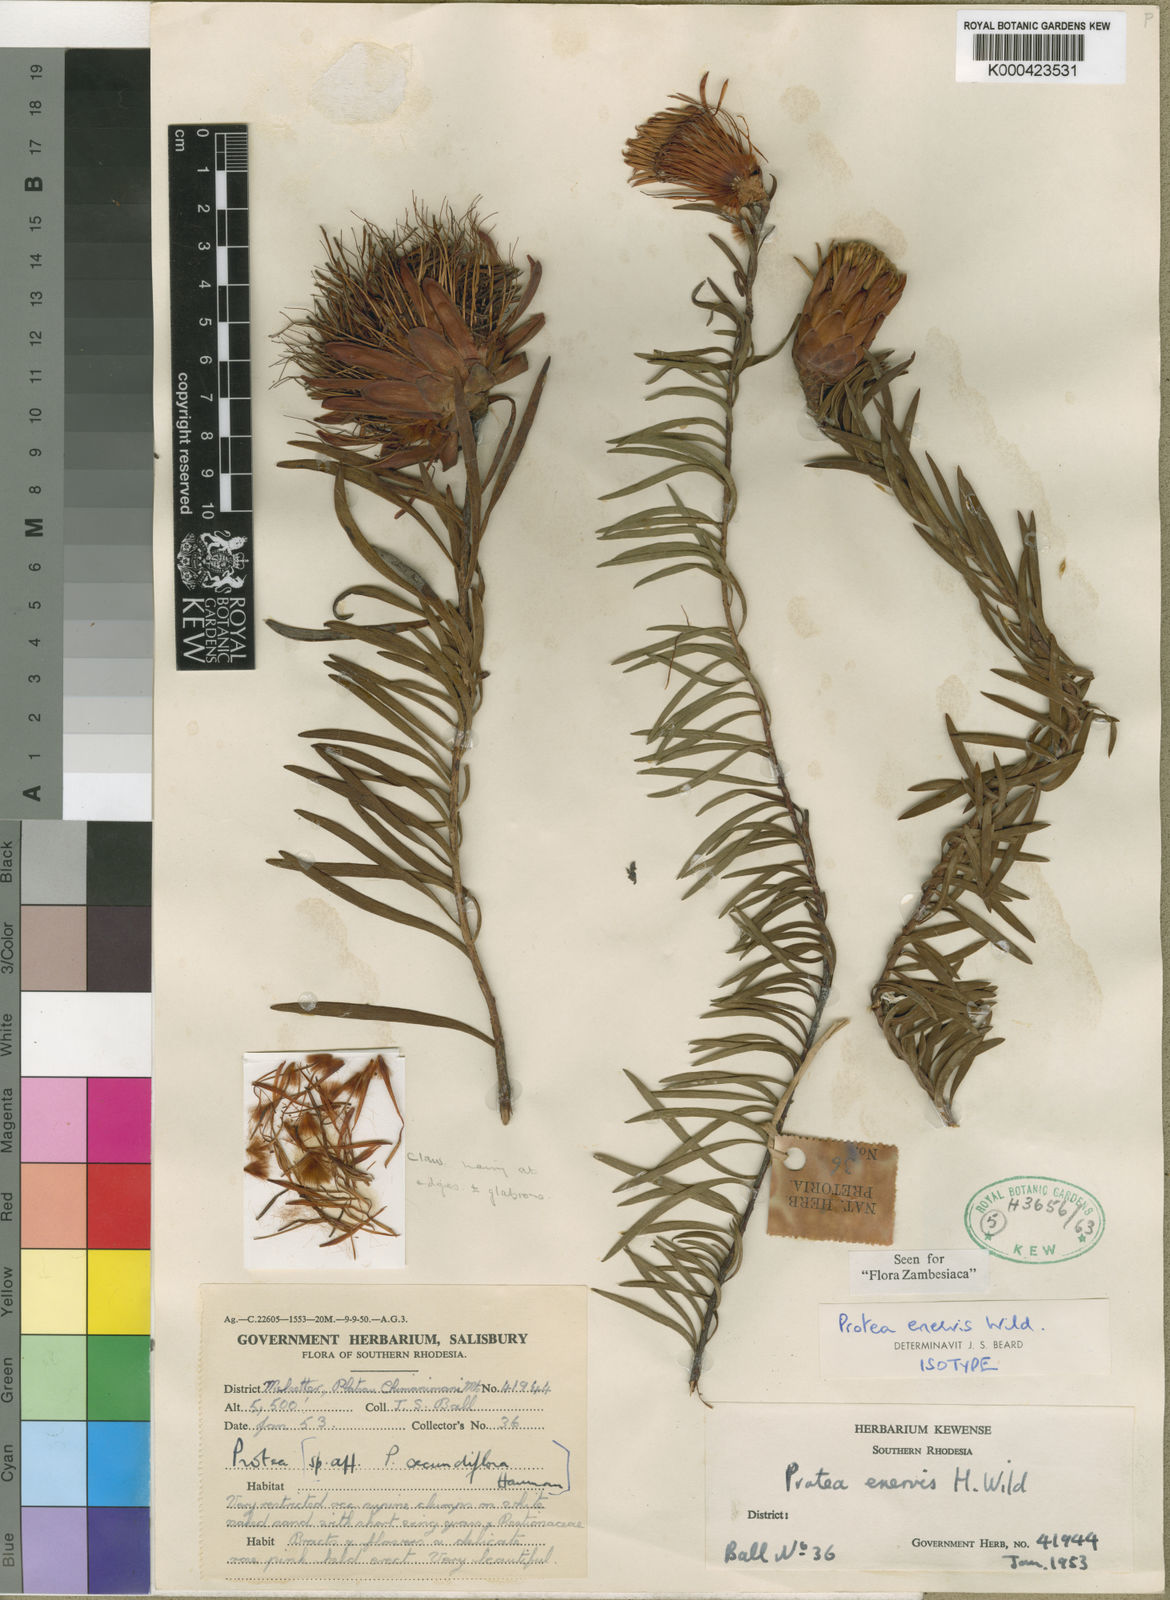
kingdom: Plantae
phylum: Tracheophyta
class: Magnoliopsida
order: Proteales
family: Proteaceae
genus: Protea
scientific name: Protea enervis
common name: Chimanimani sugarbush
